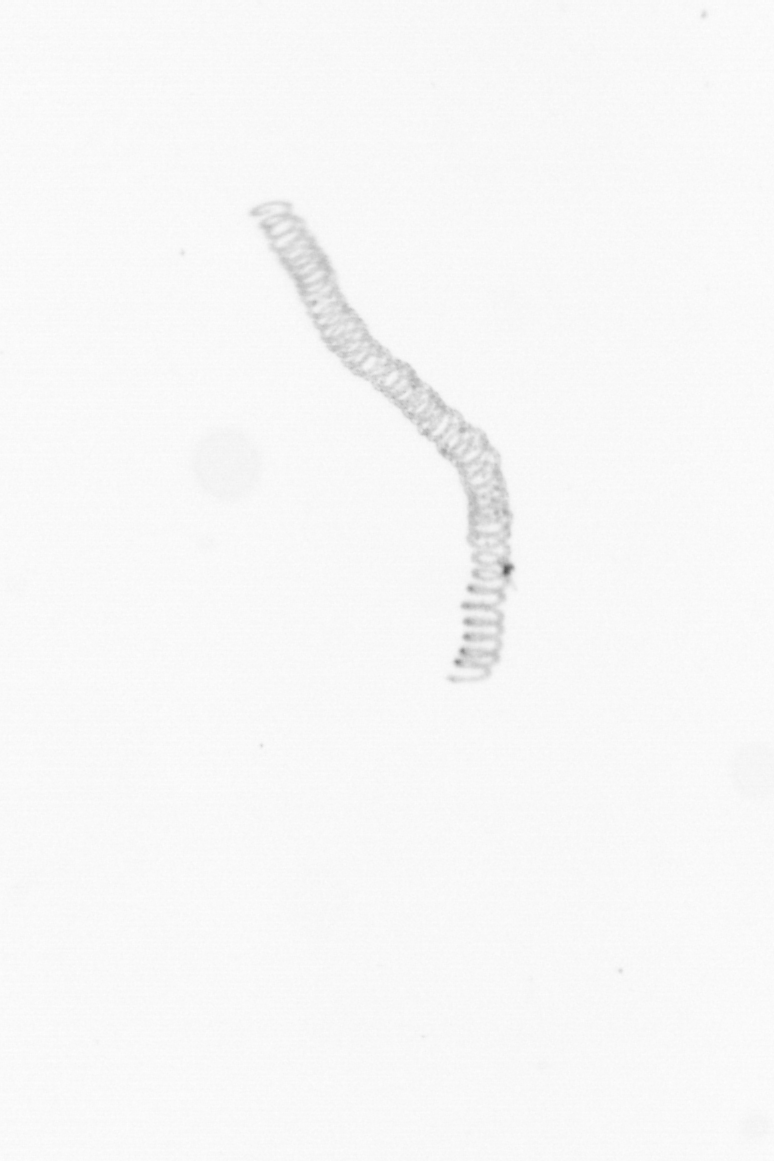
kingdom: Chromista
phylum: Ochrophyta
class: Bacillariophyceae
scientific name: Bacillariophyceae
